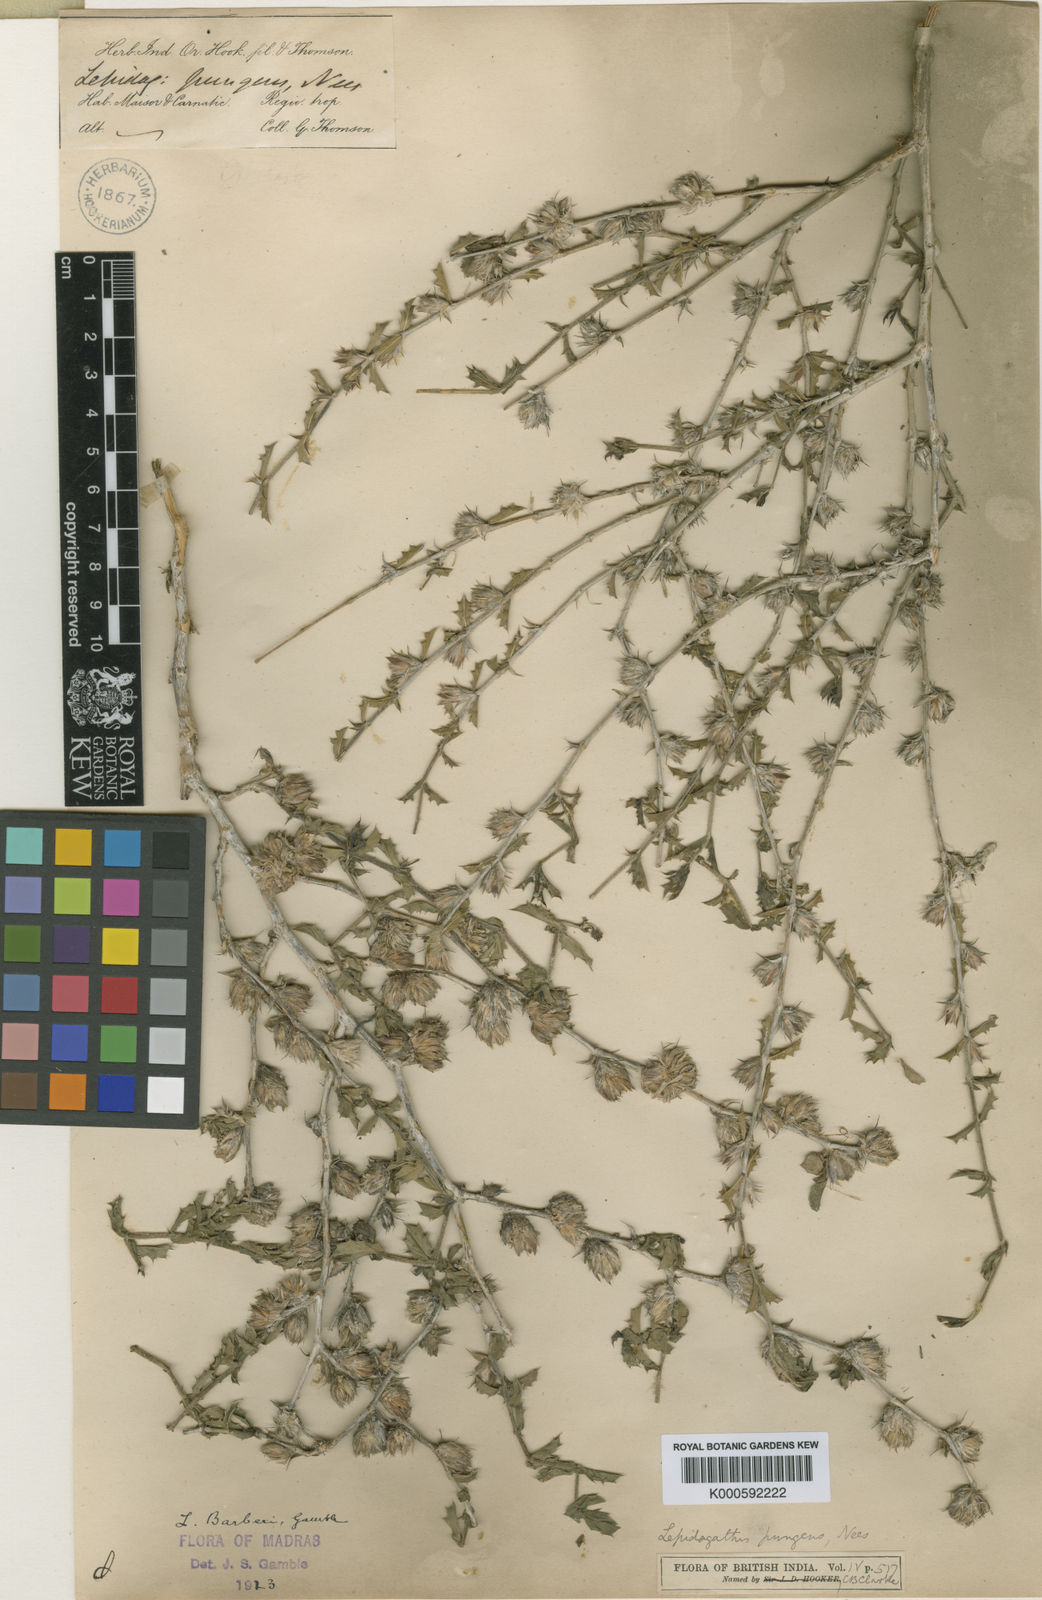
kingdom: Plantae
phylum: Tracheophyta
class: Magnoliopsida
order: Lamiales
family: Acanthaceae
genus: Lepidagathis
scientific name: Lepidagathis barberi
